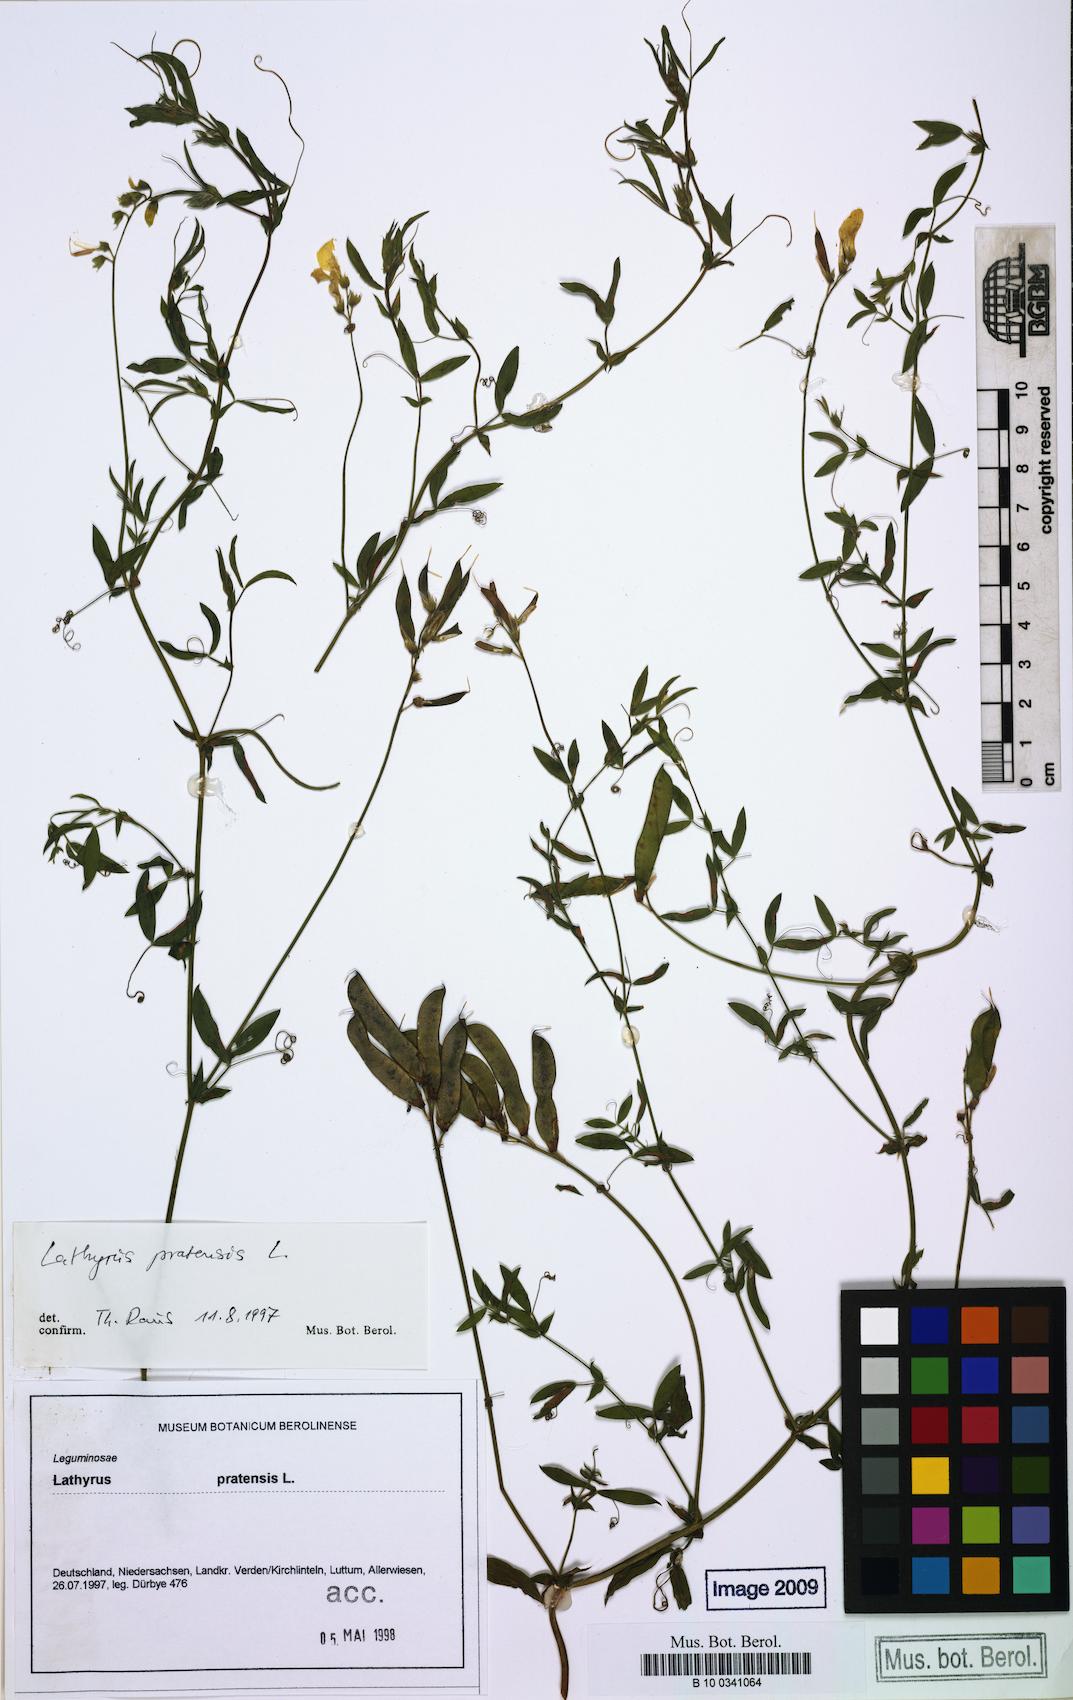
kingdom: Plantae
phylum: Tracheophyta
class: Magnoliopsida
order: Fabales
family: Fabaceae
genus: Lathyrus
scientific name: Lathyrus pratensis
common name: Meadow vetchling
